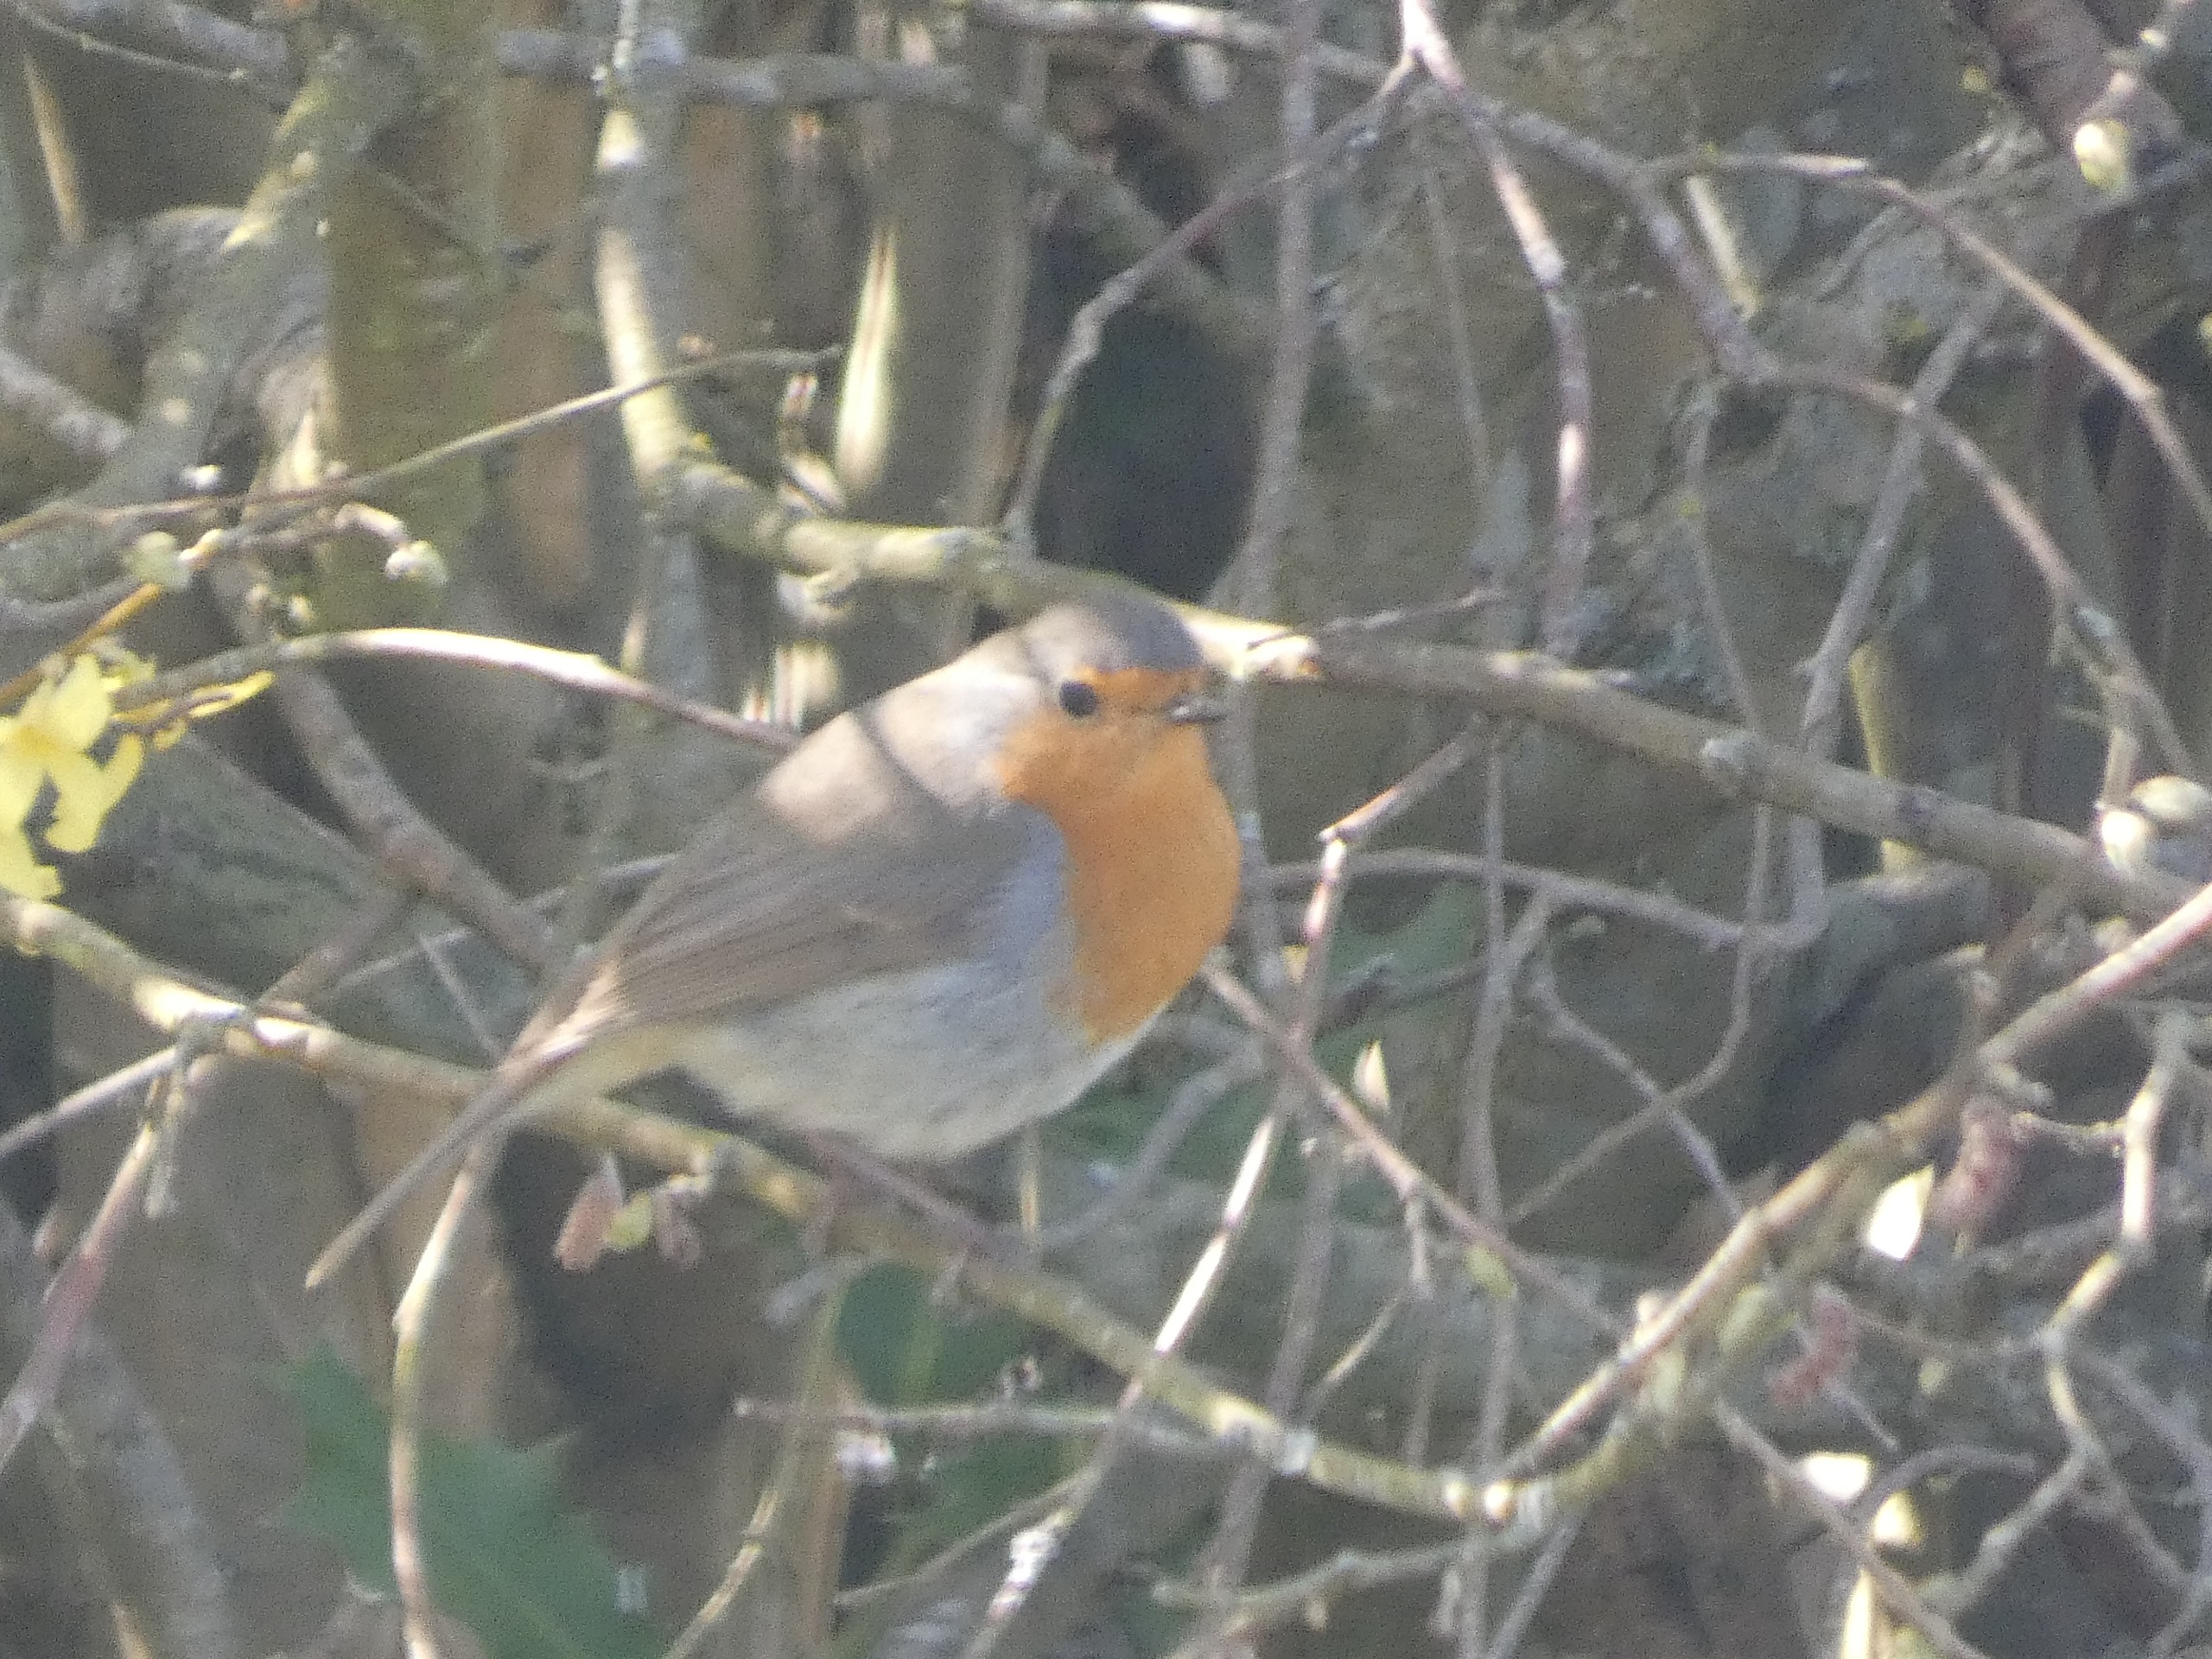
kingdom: Animalia
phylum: Chordata
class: Aves
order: Passeriformes
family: Muscicapidae
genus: Erithacus
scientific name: Erithacus rubecula
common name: Rødhals/rødkælk
